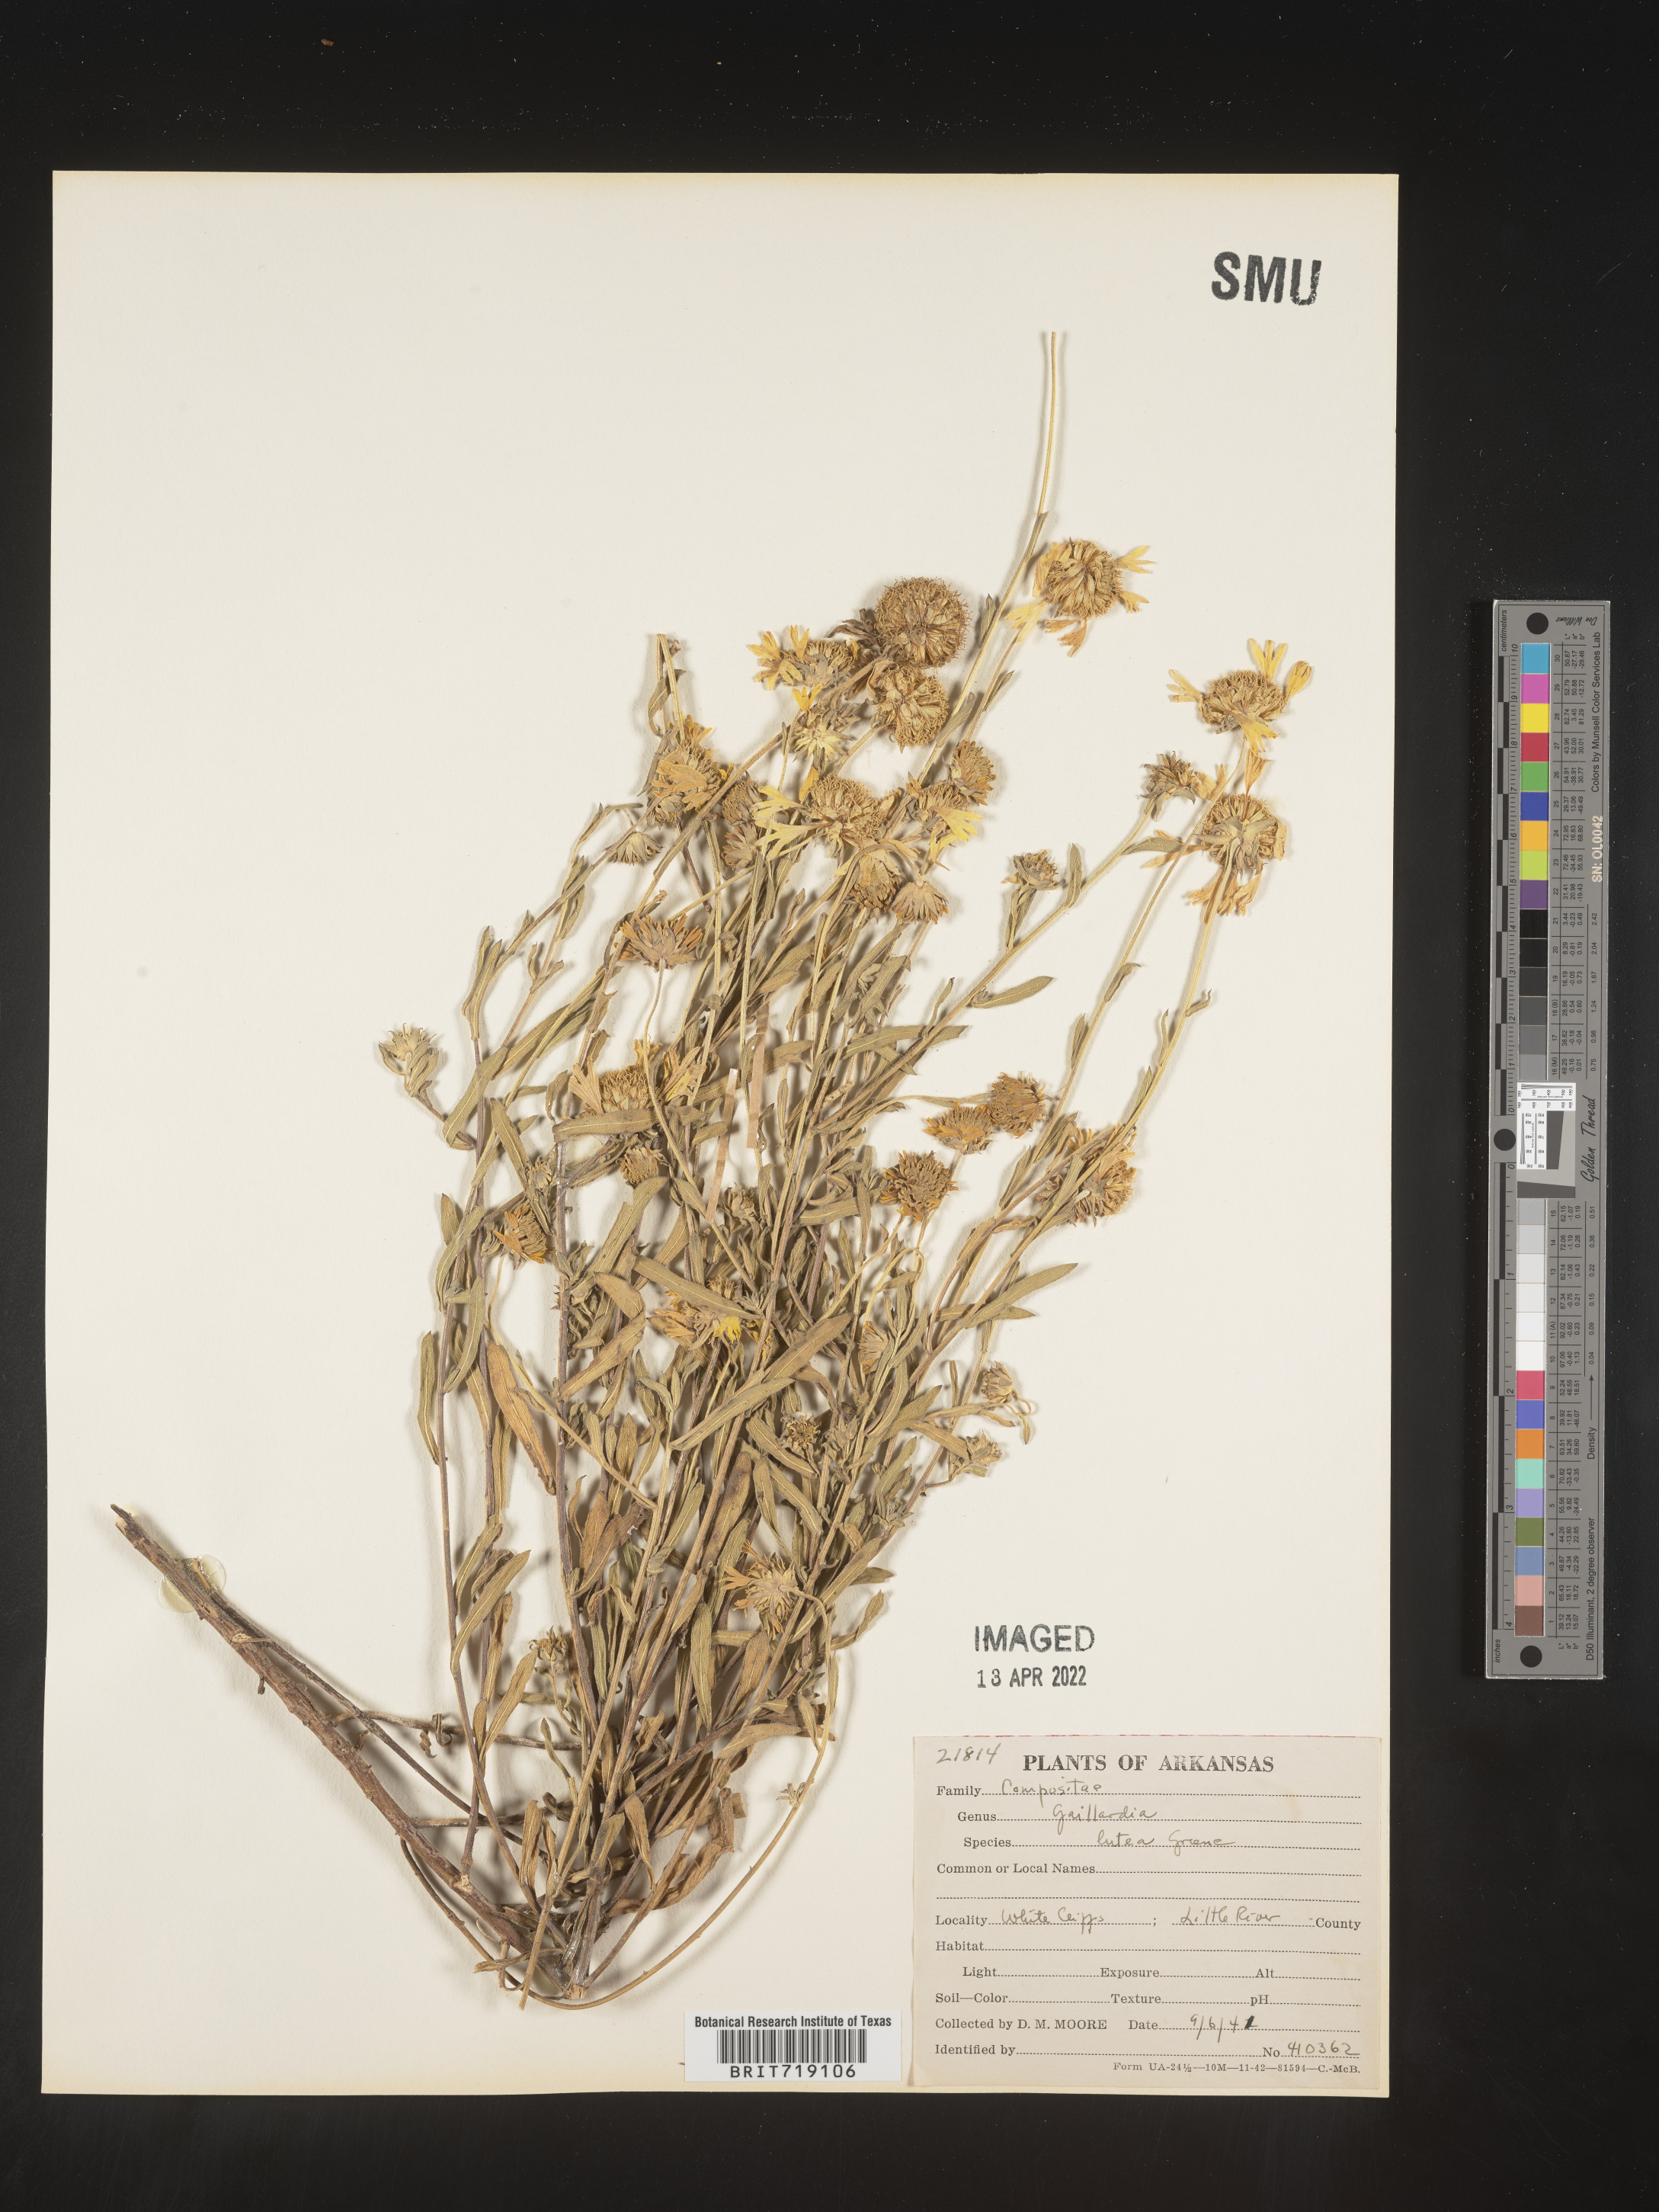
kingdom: Plantae
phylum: Tracheophyta
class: Magnoliopsida
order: Asterales
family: Asteraceae
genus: Gaillardia
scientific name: Gaillardia aestivalis
